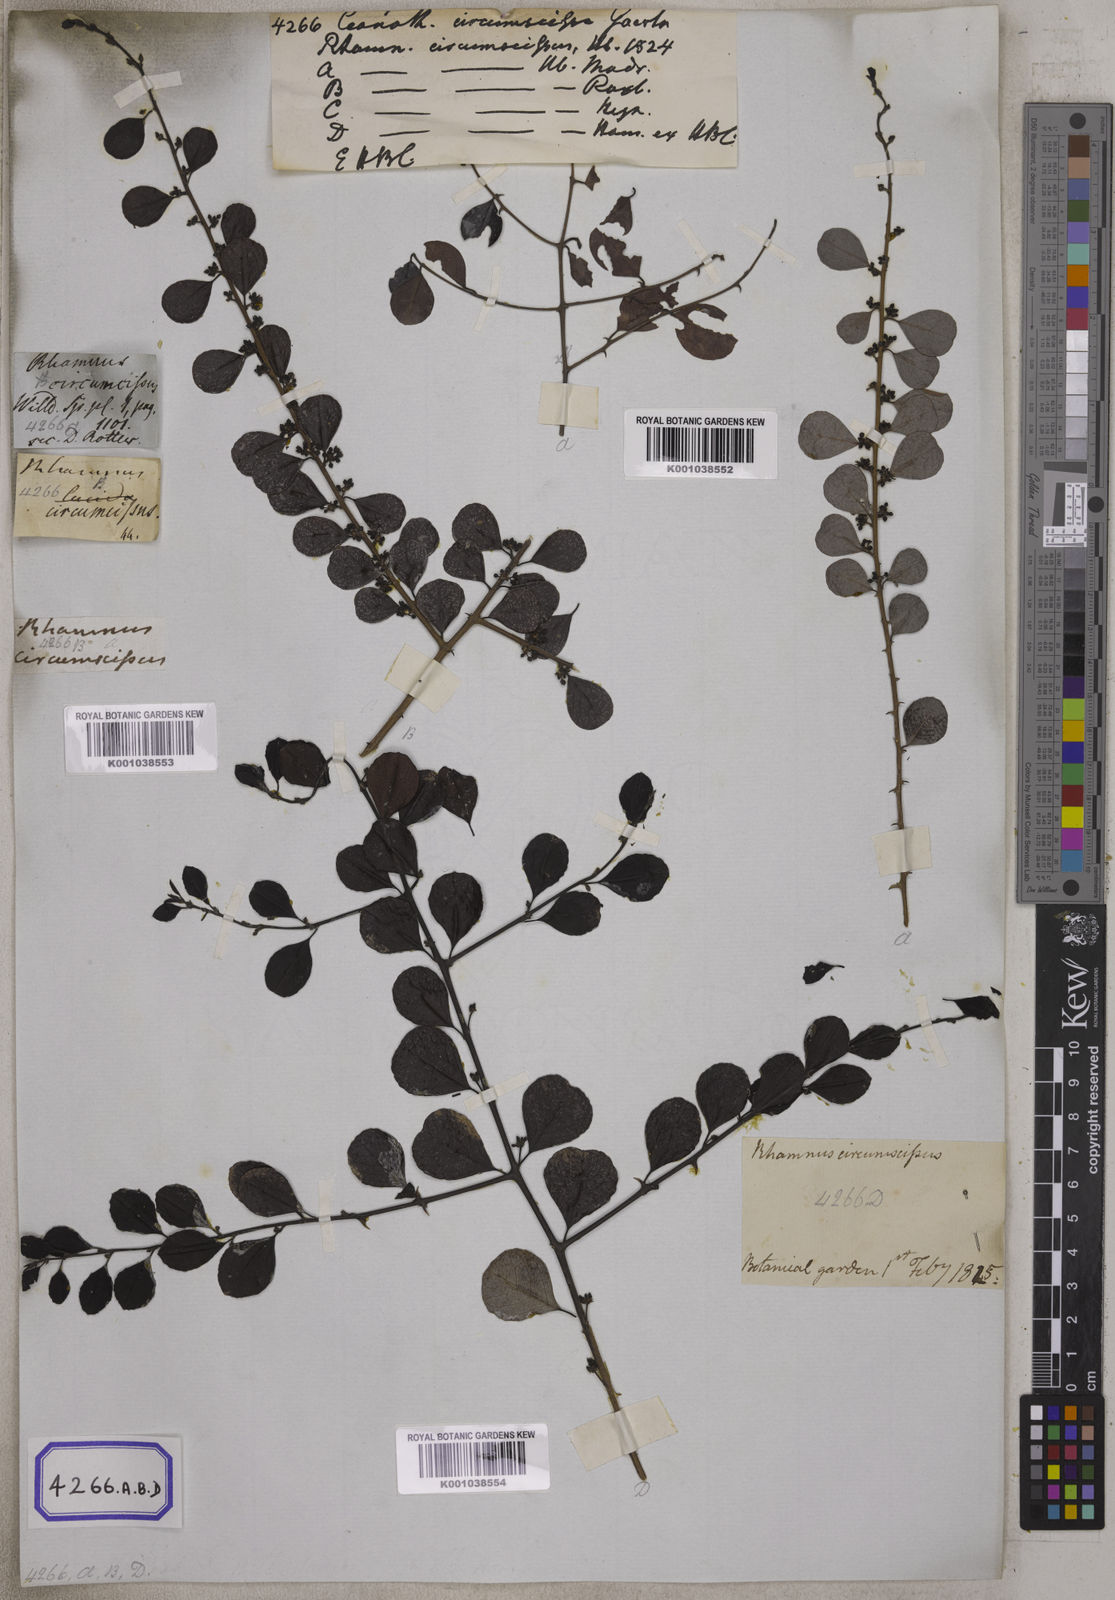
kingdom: Plantae
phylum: Tracheophyta
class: Magnoliopsida
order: Rosales
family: Rhamnaceae
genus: Scutia
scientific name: Scutia myrtina
